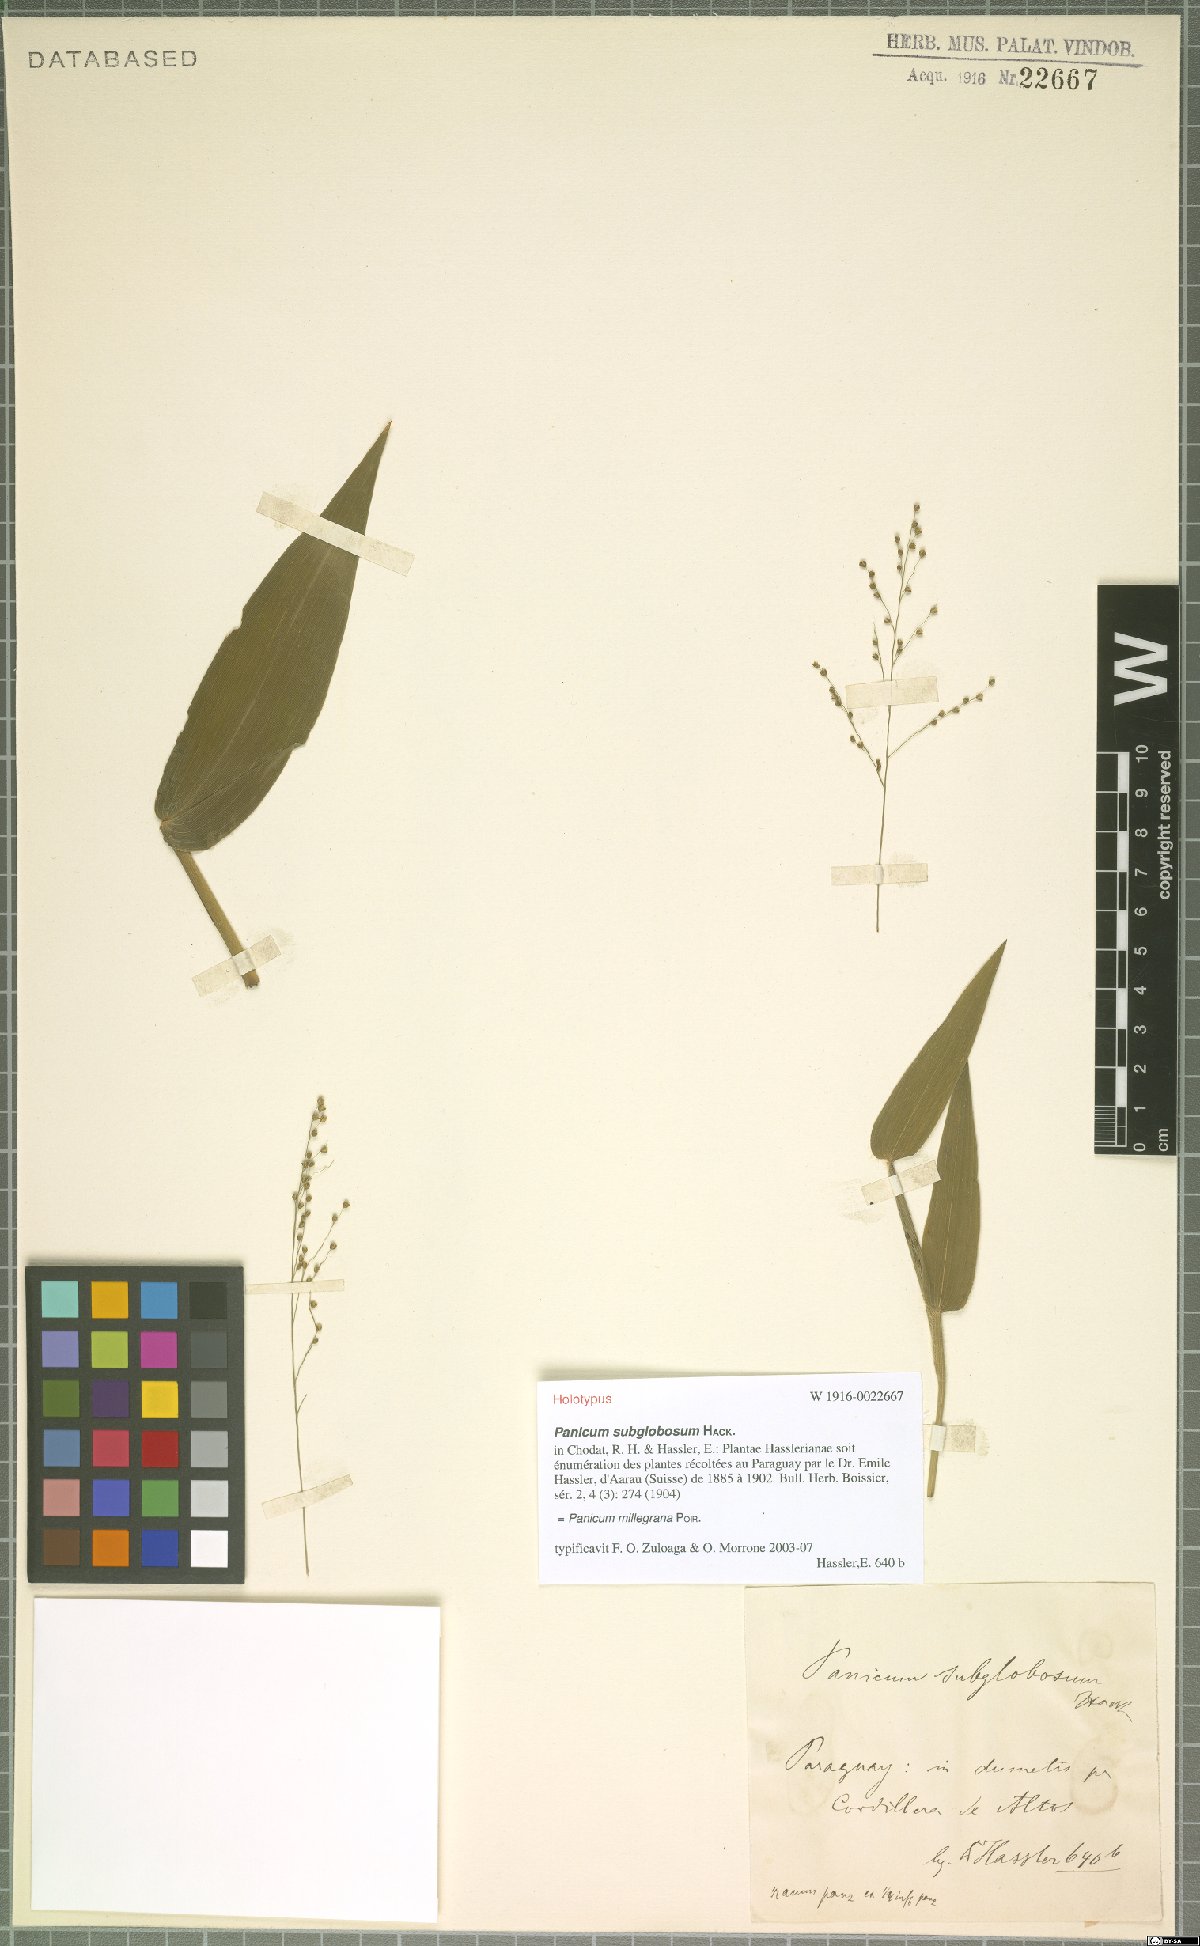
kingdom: Plantae
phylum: Tracheophyta
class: Liliopsida
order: Poales
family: Poaceae
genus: Panicum
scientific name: Panicum millegrana
